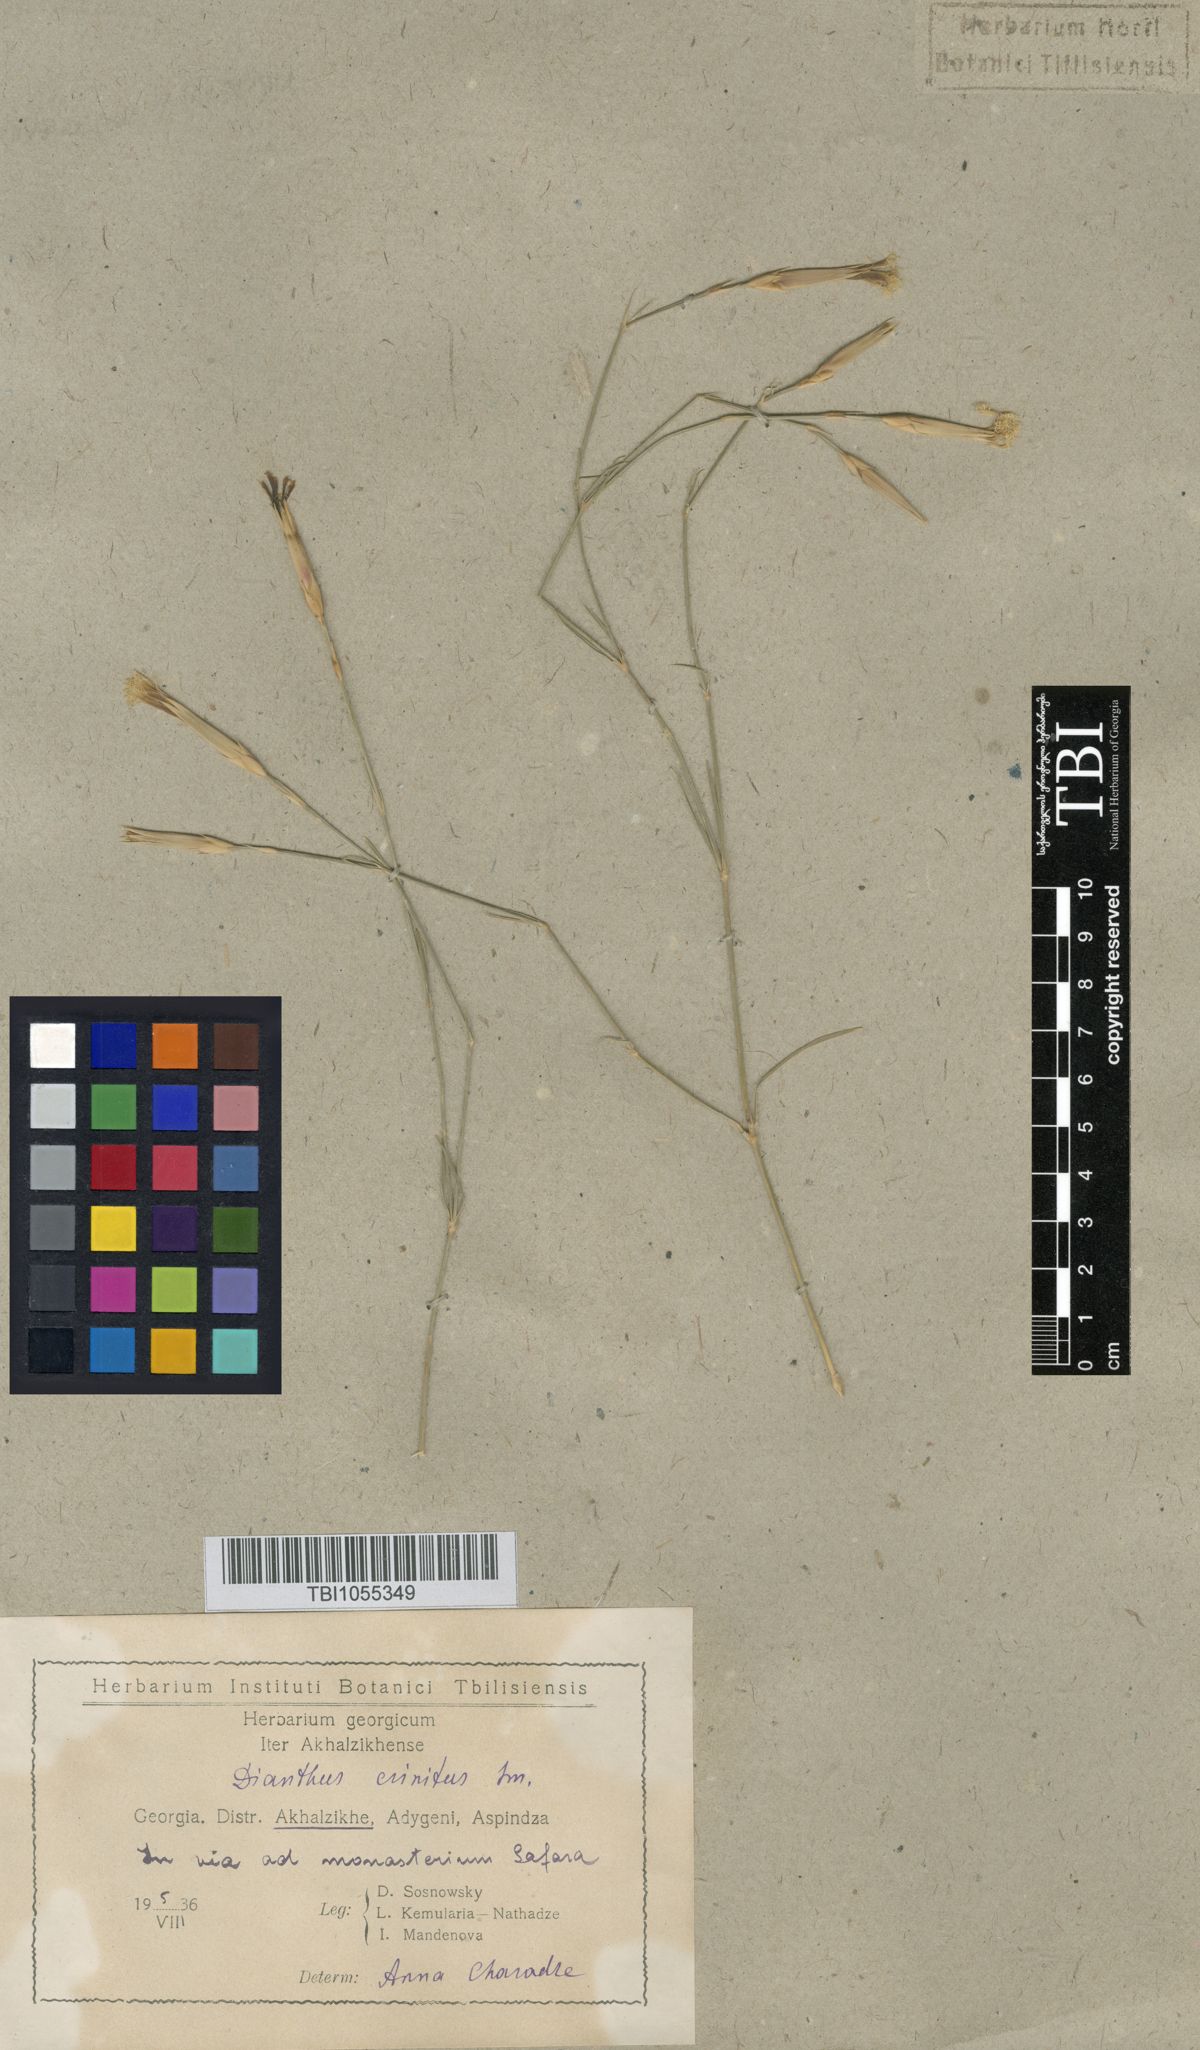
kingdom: Plantae
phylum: Tracheophyta
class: Magnoliopsida
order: Caryophyllales
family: Caryophyllaceae
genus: Dianthus
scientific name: Dianthus crinitus
